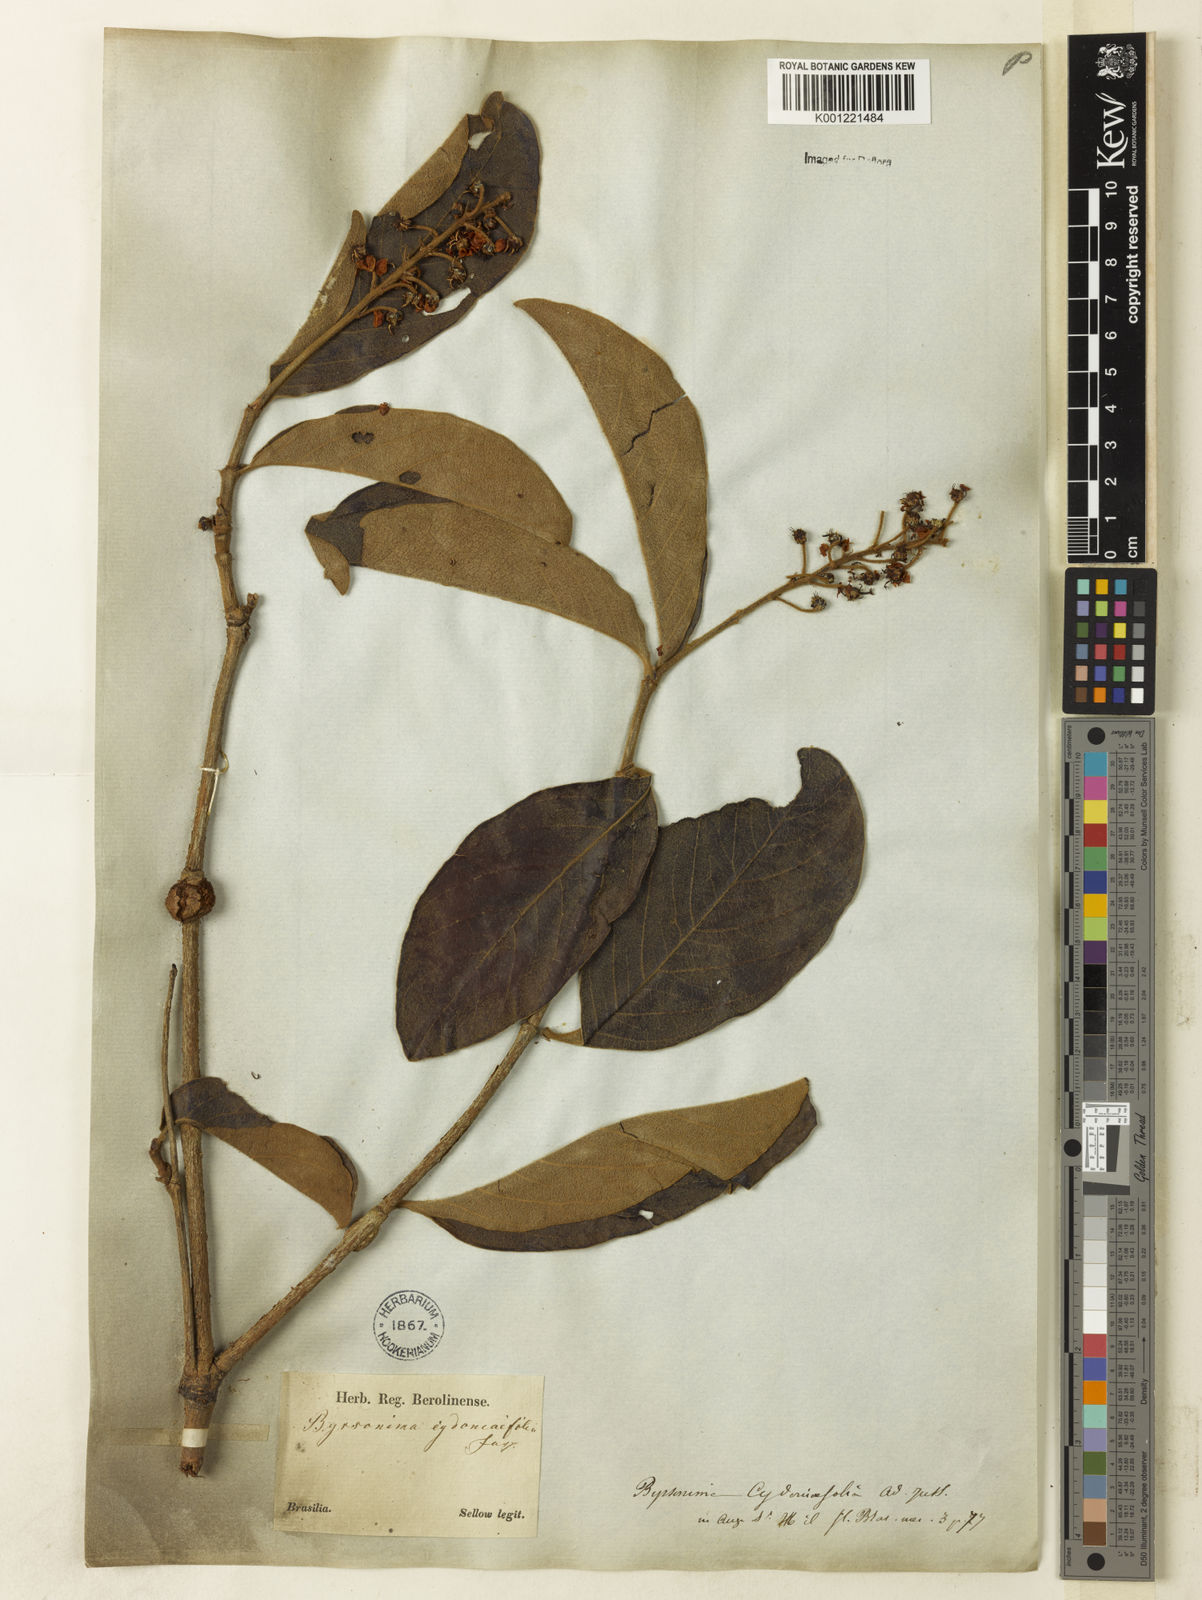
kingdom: Plantae
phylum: Tracheophyta
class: Magnoliopsida
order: Malpighiales
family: Malpighiaceae
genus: Byrsonima
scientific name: Byrsonima cydoniifolia
